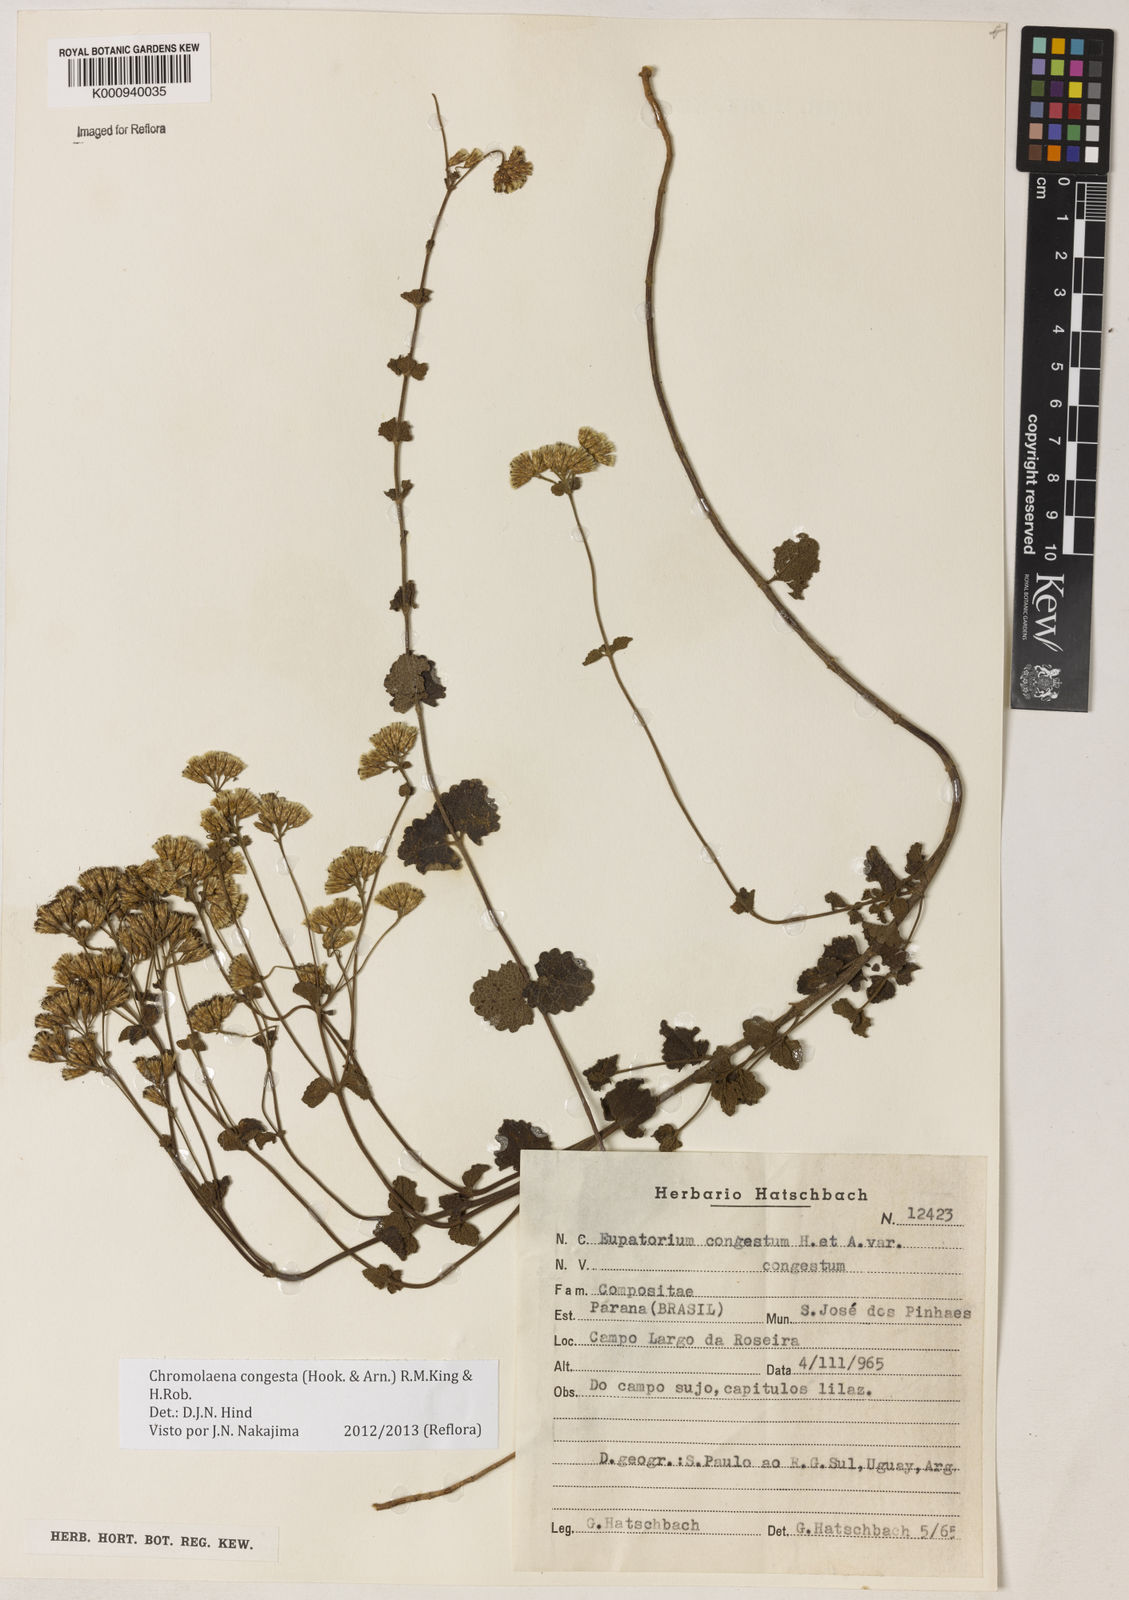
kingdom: Plantae
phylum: Tracheophyta
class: Magnoliopsida
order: Asterales
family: Asteraceae
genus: Chromolaena
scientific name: Chromolaena congesta
